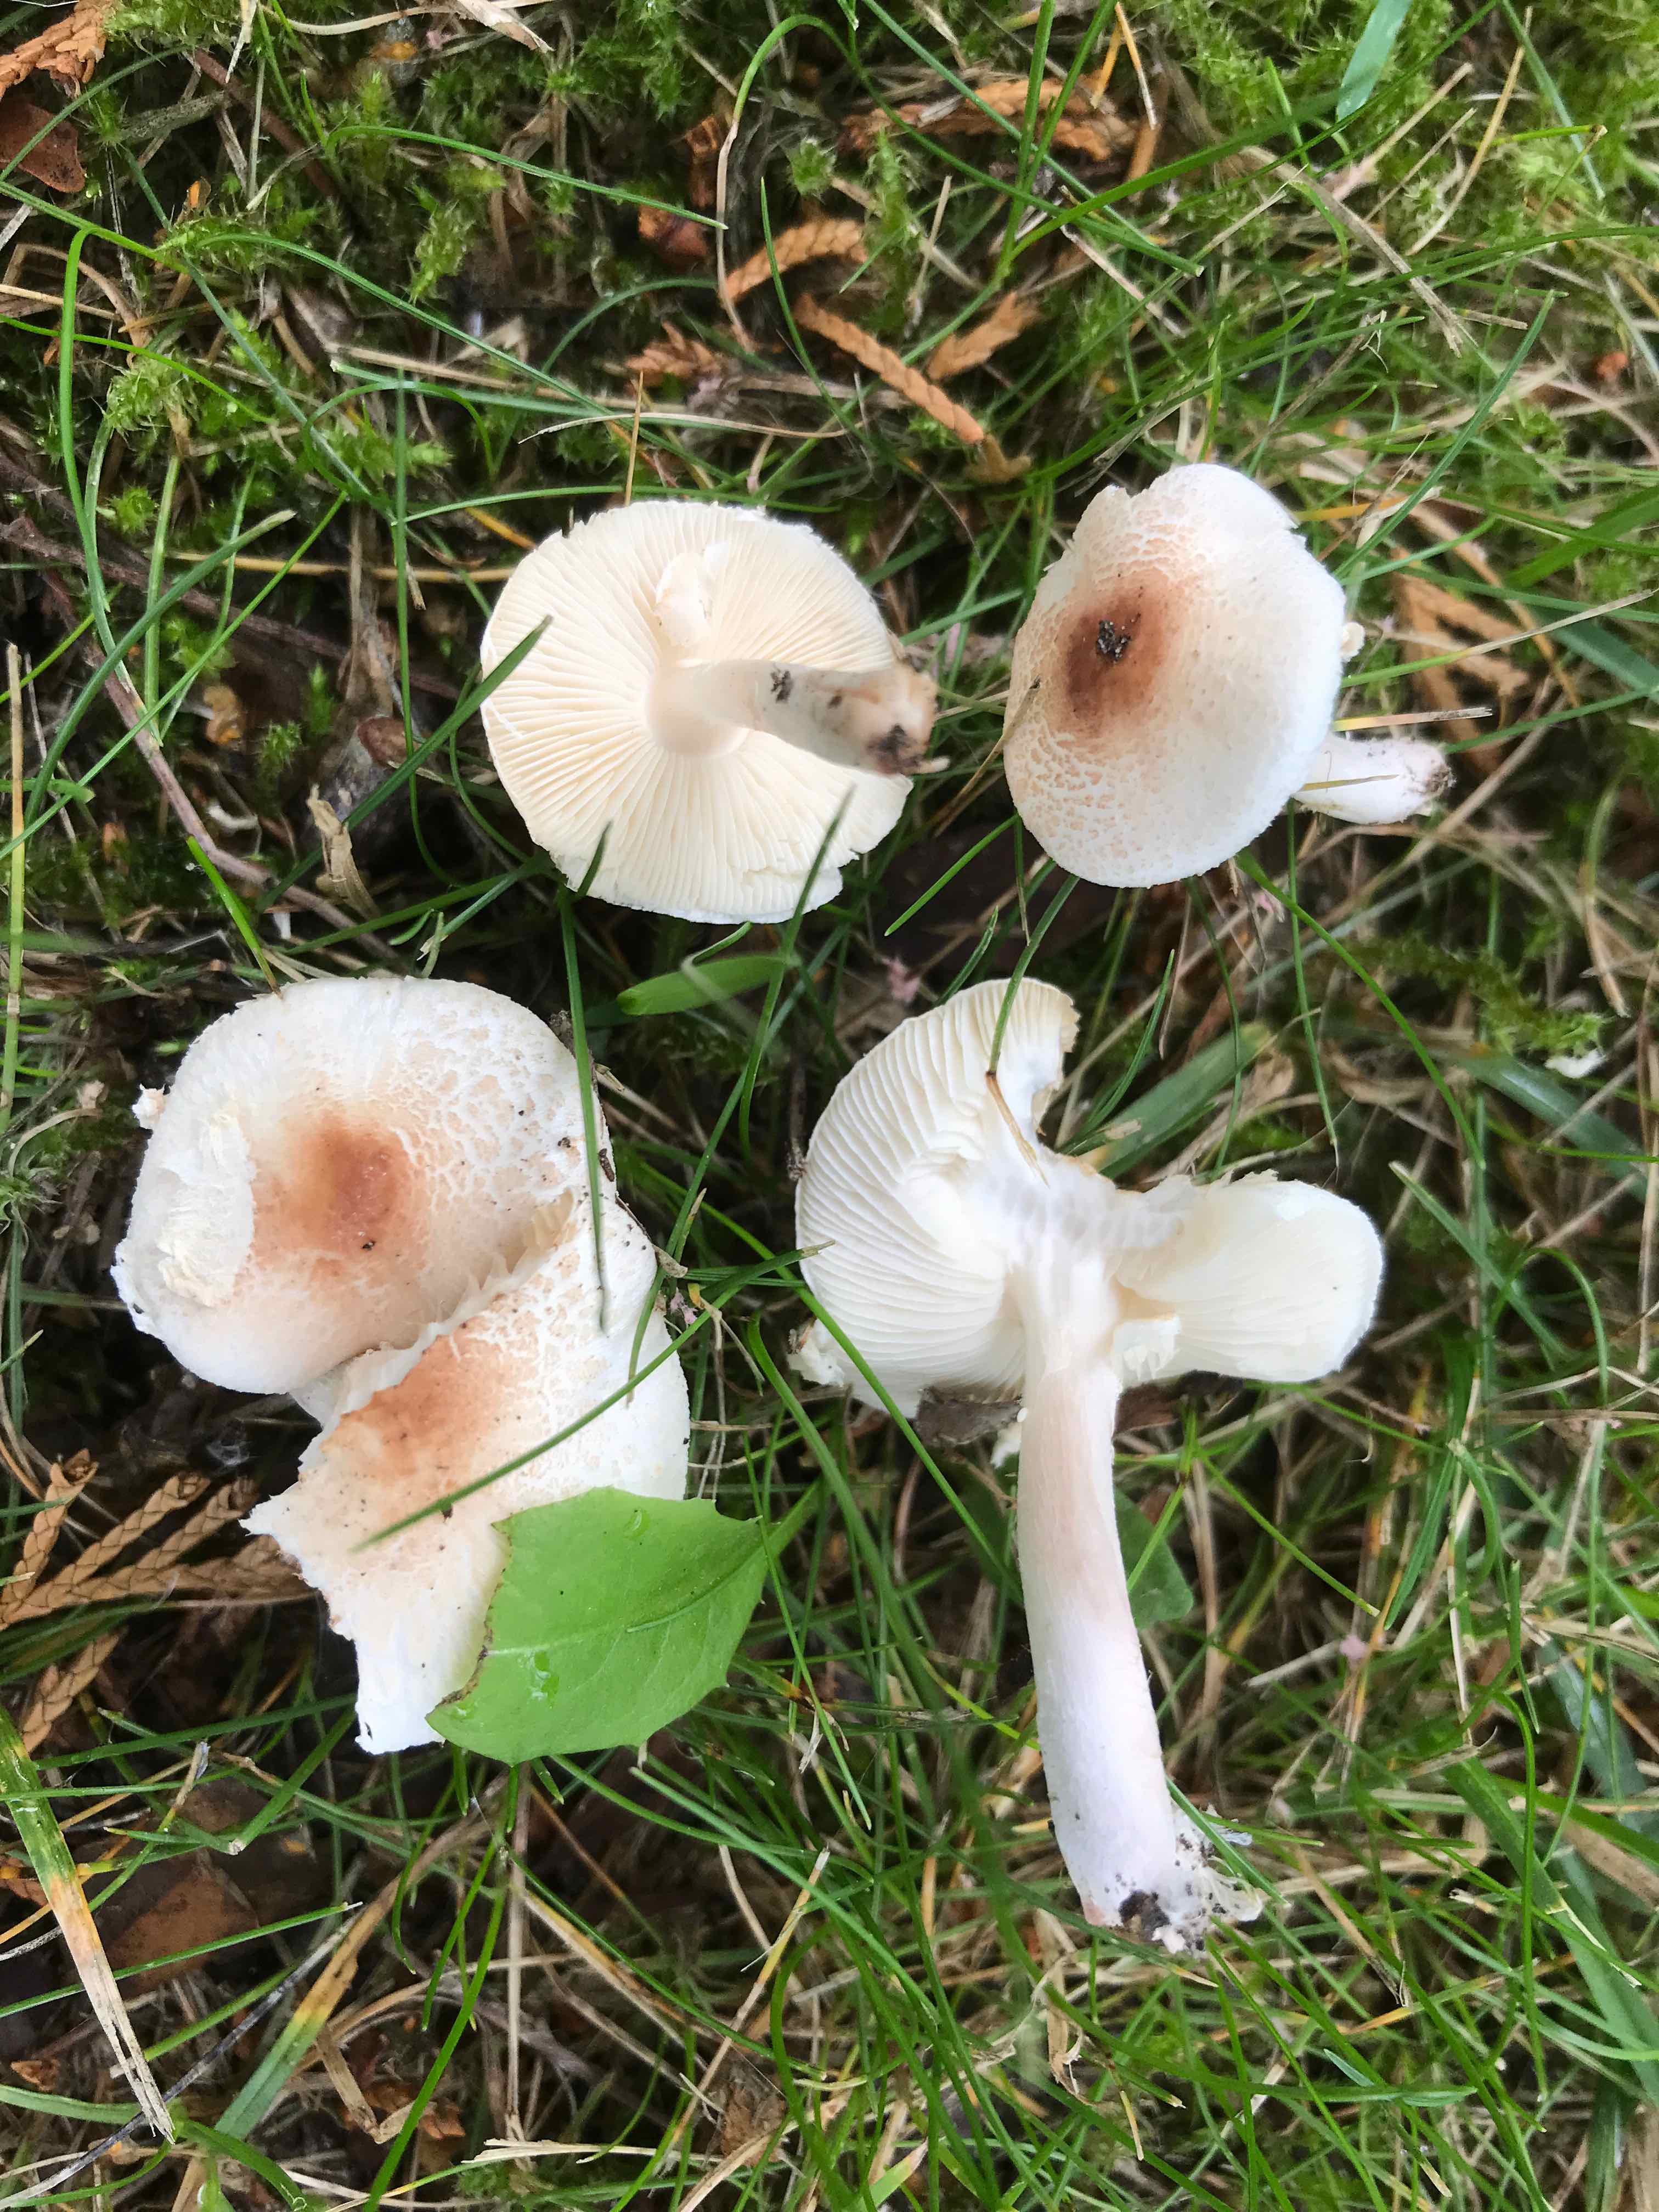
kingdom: Fungi
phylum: Basidiomycota
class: Agaricomycetes
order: Agaricales
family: Agaricaceae
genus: Lepiota
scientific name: Lepiota cristata
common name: stinkende parasolhat
